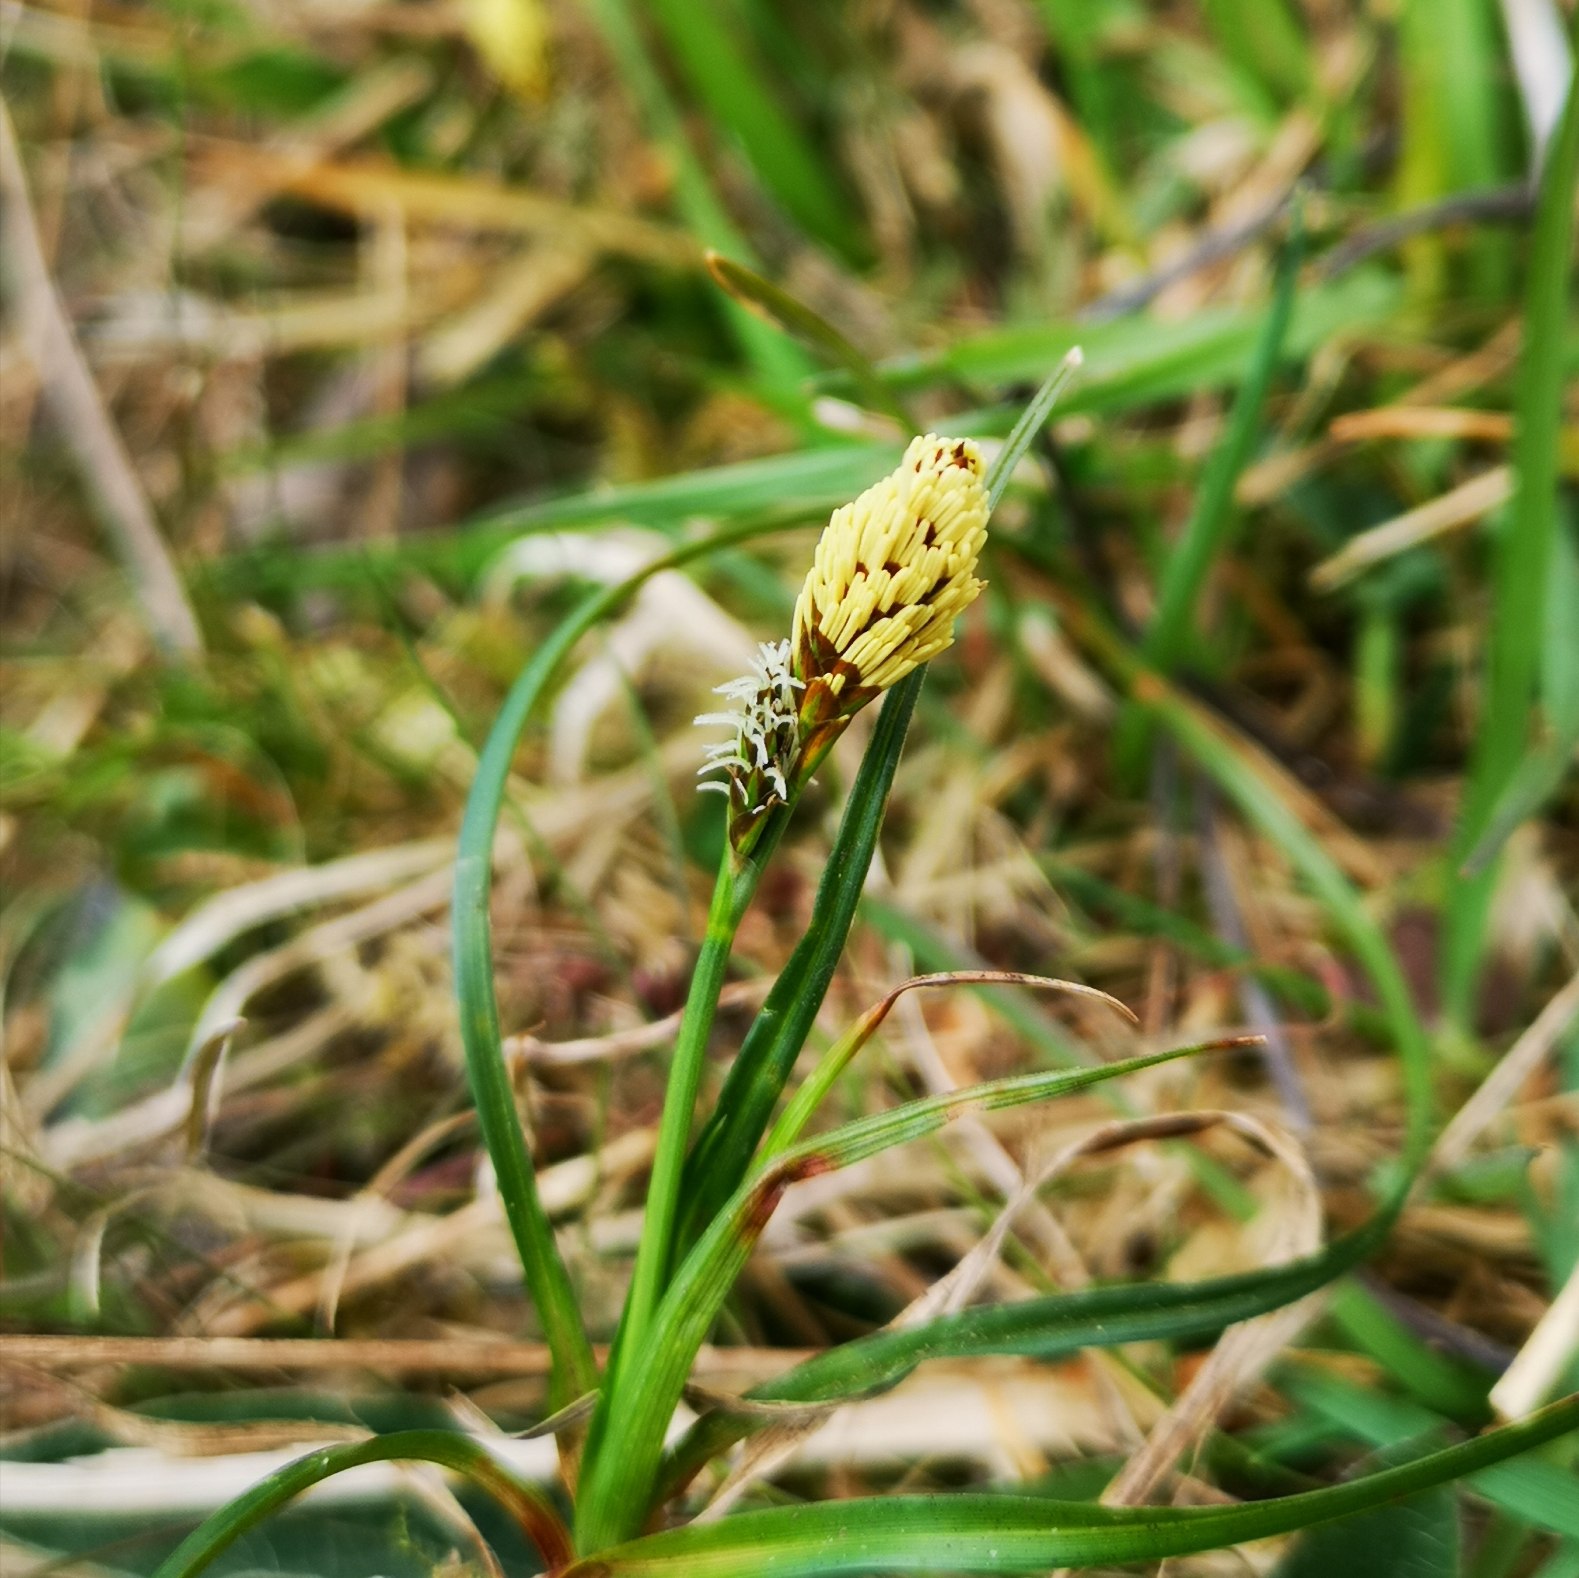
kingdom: Plantae
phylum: Tracheophyta
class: Liliopsida
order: Poales
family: Cyperaceae
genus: Carex
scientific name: Carex caryophyllea
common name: Vår-star
